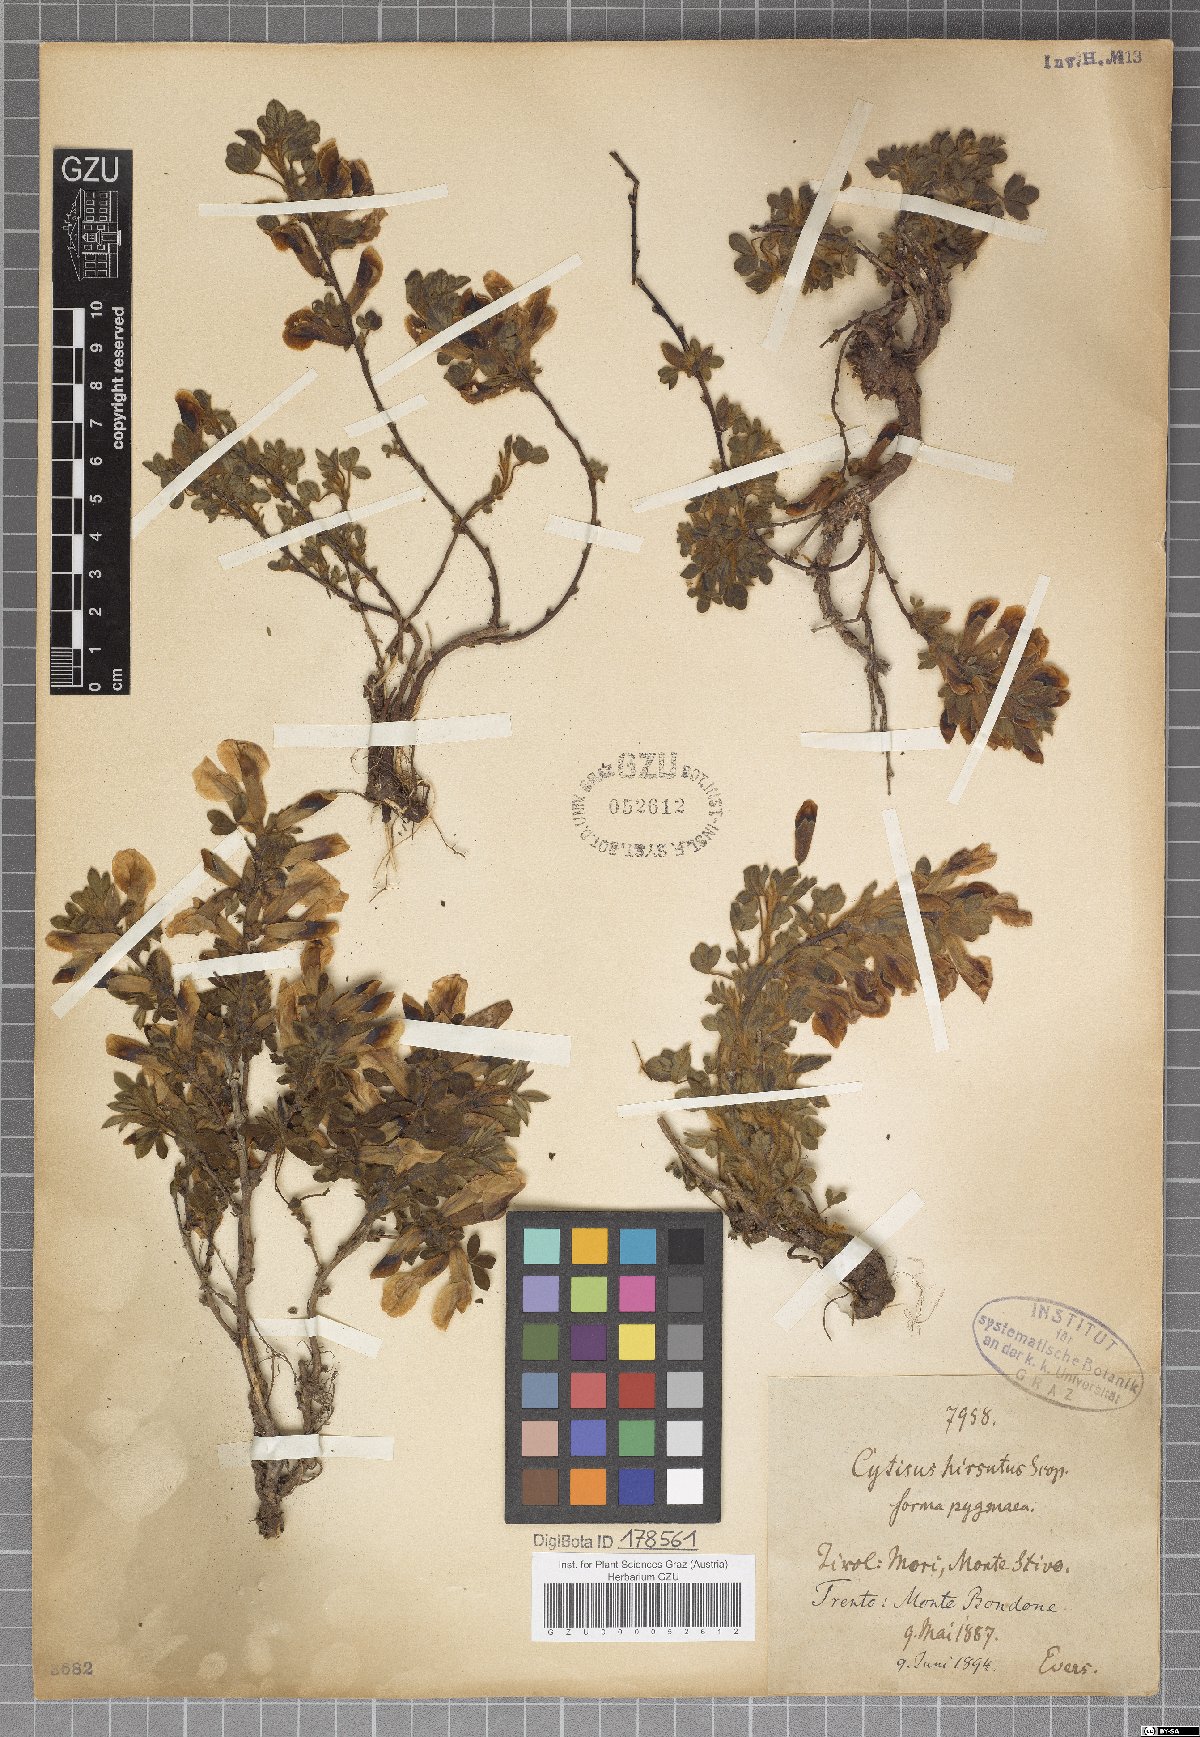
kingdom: Plantae
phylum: Tracheophyta
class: Magnoliopsida
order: Fabales
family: Fabaceae
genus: Chamaecytisus
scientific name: Chamaecytisus hirsutus
